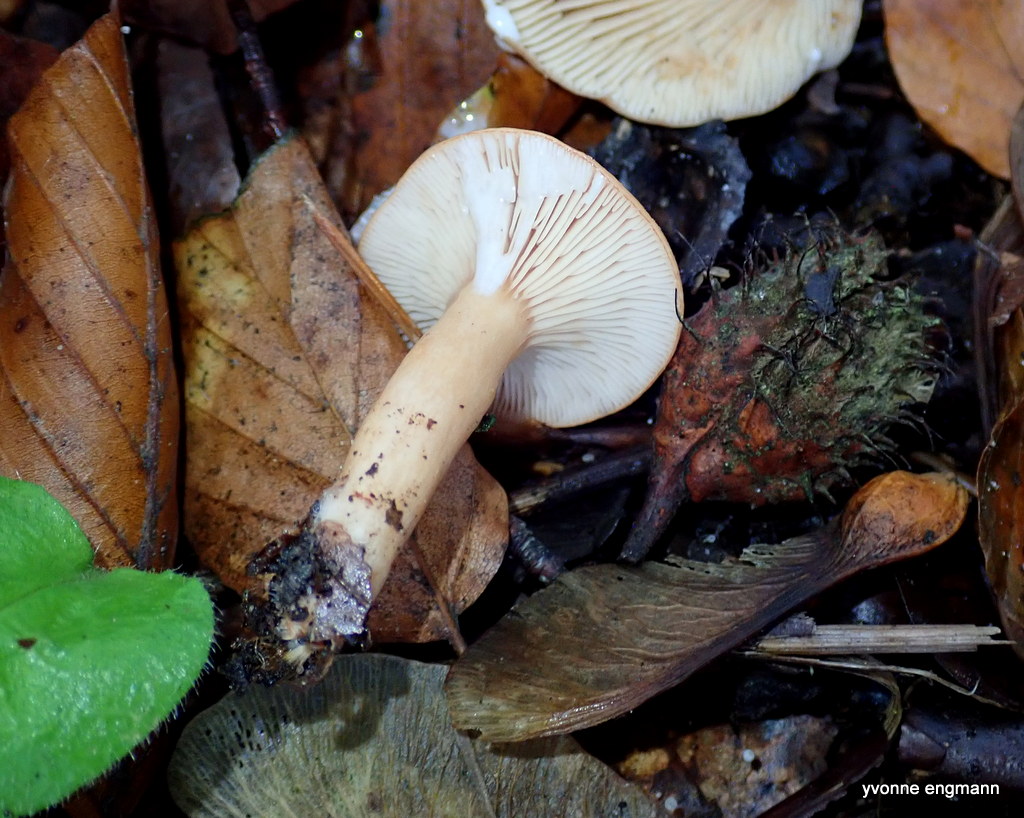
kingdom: Fungi
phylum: Basidiomycota
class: Agaricomycetes
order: Russulales
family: Russulaceae
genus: Lactarius
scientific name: Lactarius subdulcis
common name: sødlig mælkehat
